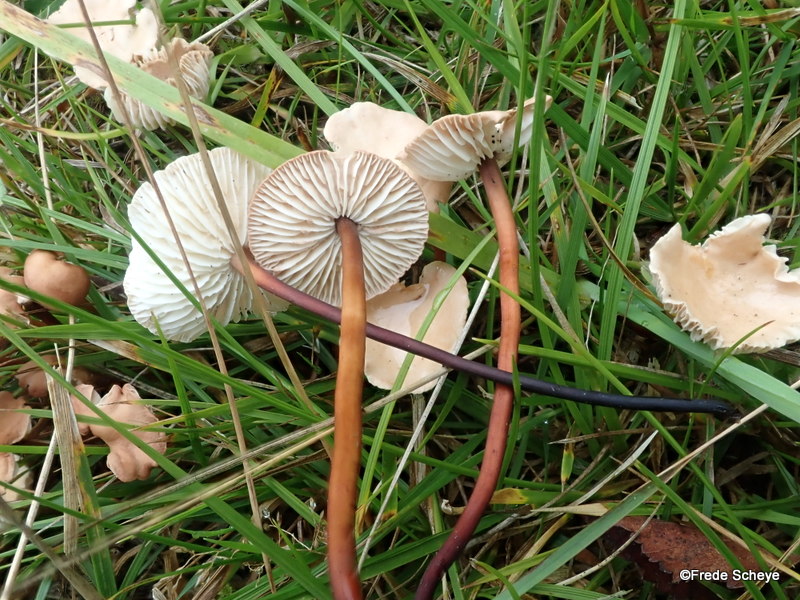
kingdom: Fungi
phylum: Basidiomycota
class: Agaricomycetes
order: Agaricales
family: Omphalotaceae
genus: Mycetinis
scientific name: Mycetinis scorodonius
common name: lille løghat
